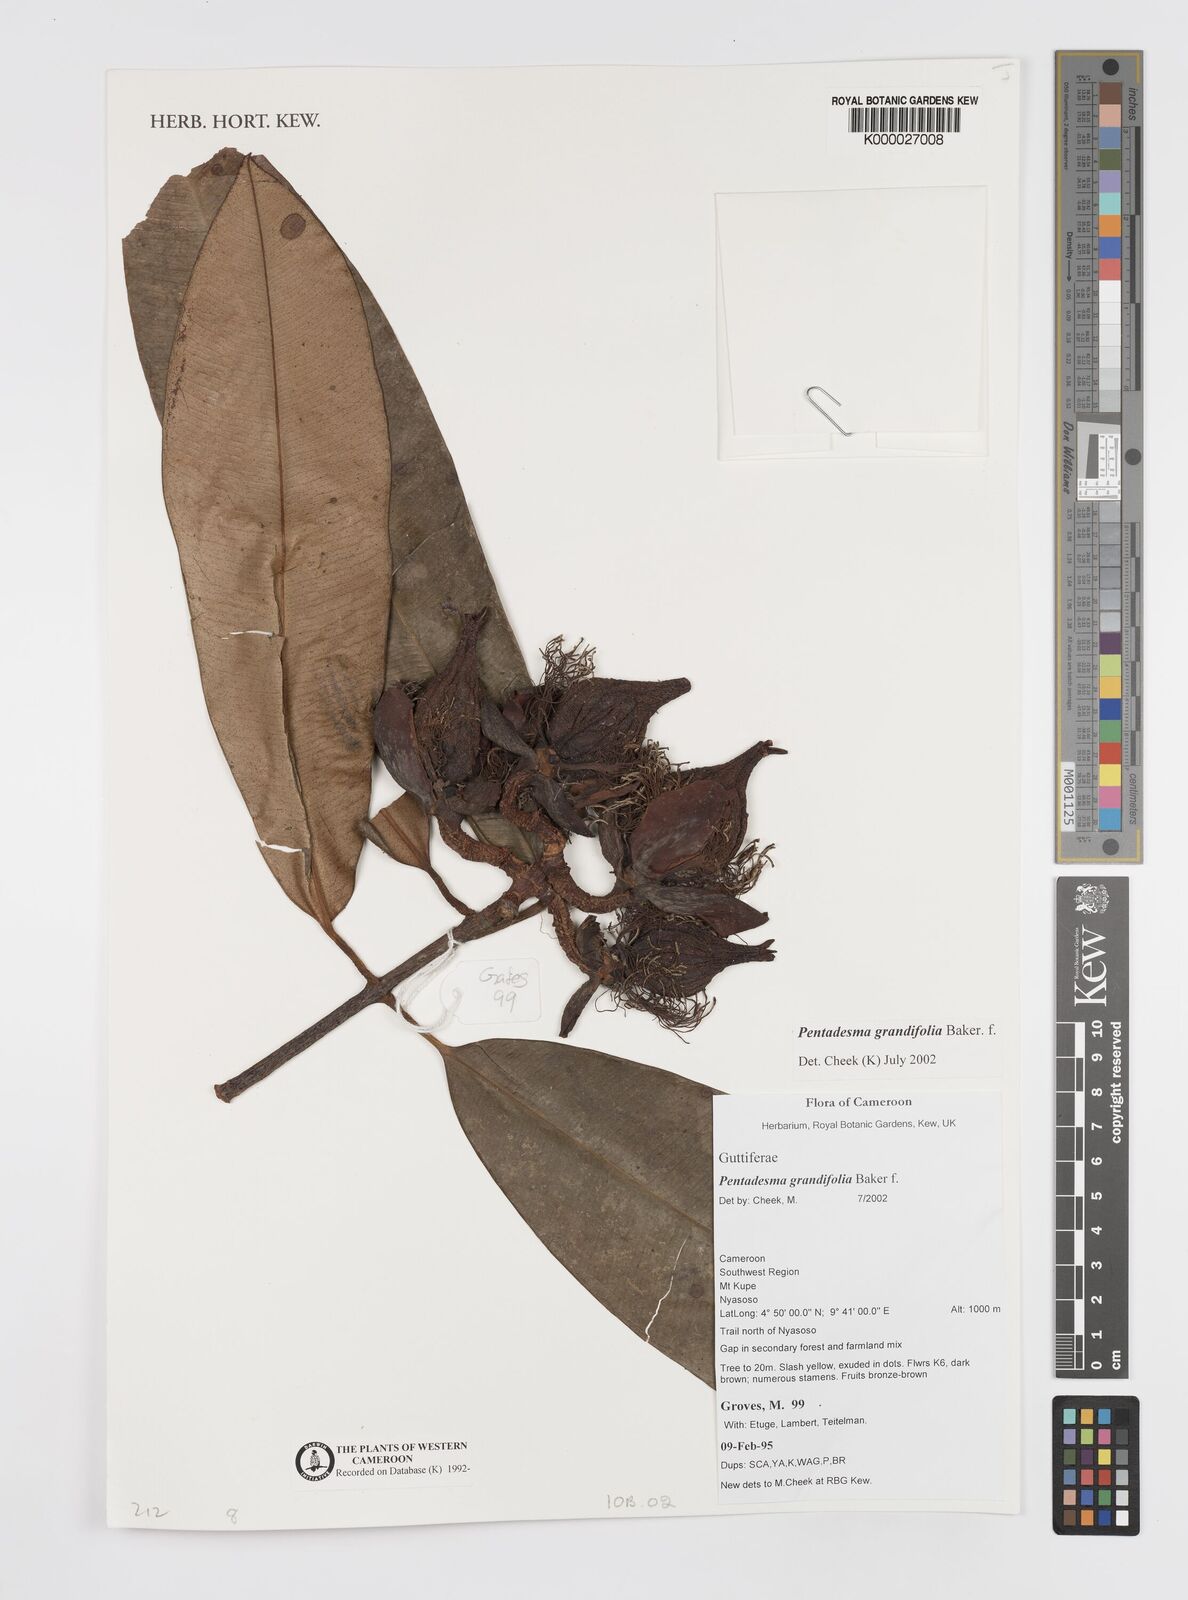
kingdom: Plantae
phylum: Tracheophyta
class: Magnoliopsida
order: Malpighiales
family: Clusiaceae
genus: Pentadesma
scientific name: Pentadesma grandifolia
